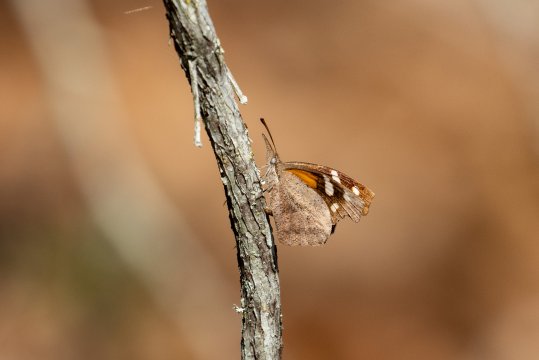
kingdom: Animalia
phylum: Arthropoda
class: Insecta
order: Lepidoptera
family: Nymphalidae
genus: Libytheana
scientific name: Libytheana carinenta
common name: American Snout
